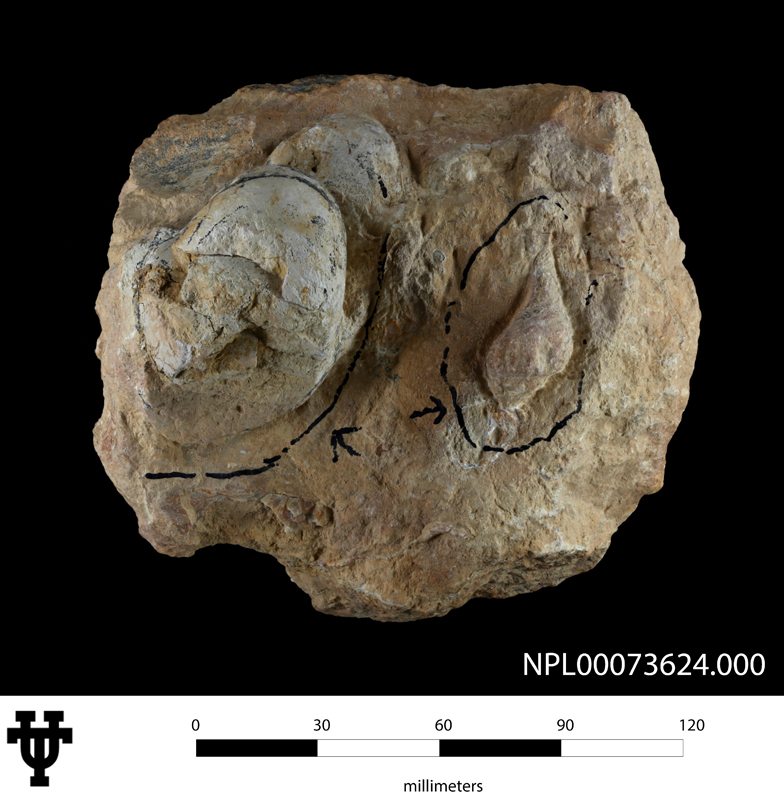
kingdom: Animalia
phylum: Mollusca
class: Cephalopoda
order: Nautilida
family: Nautilidae
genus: Eutrephoceras
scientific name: Eutrephoceras
